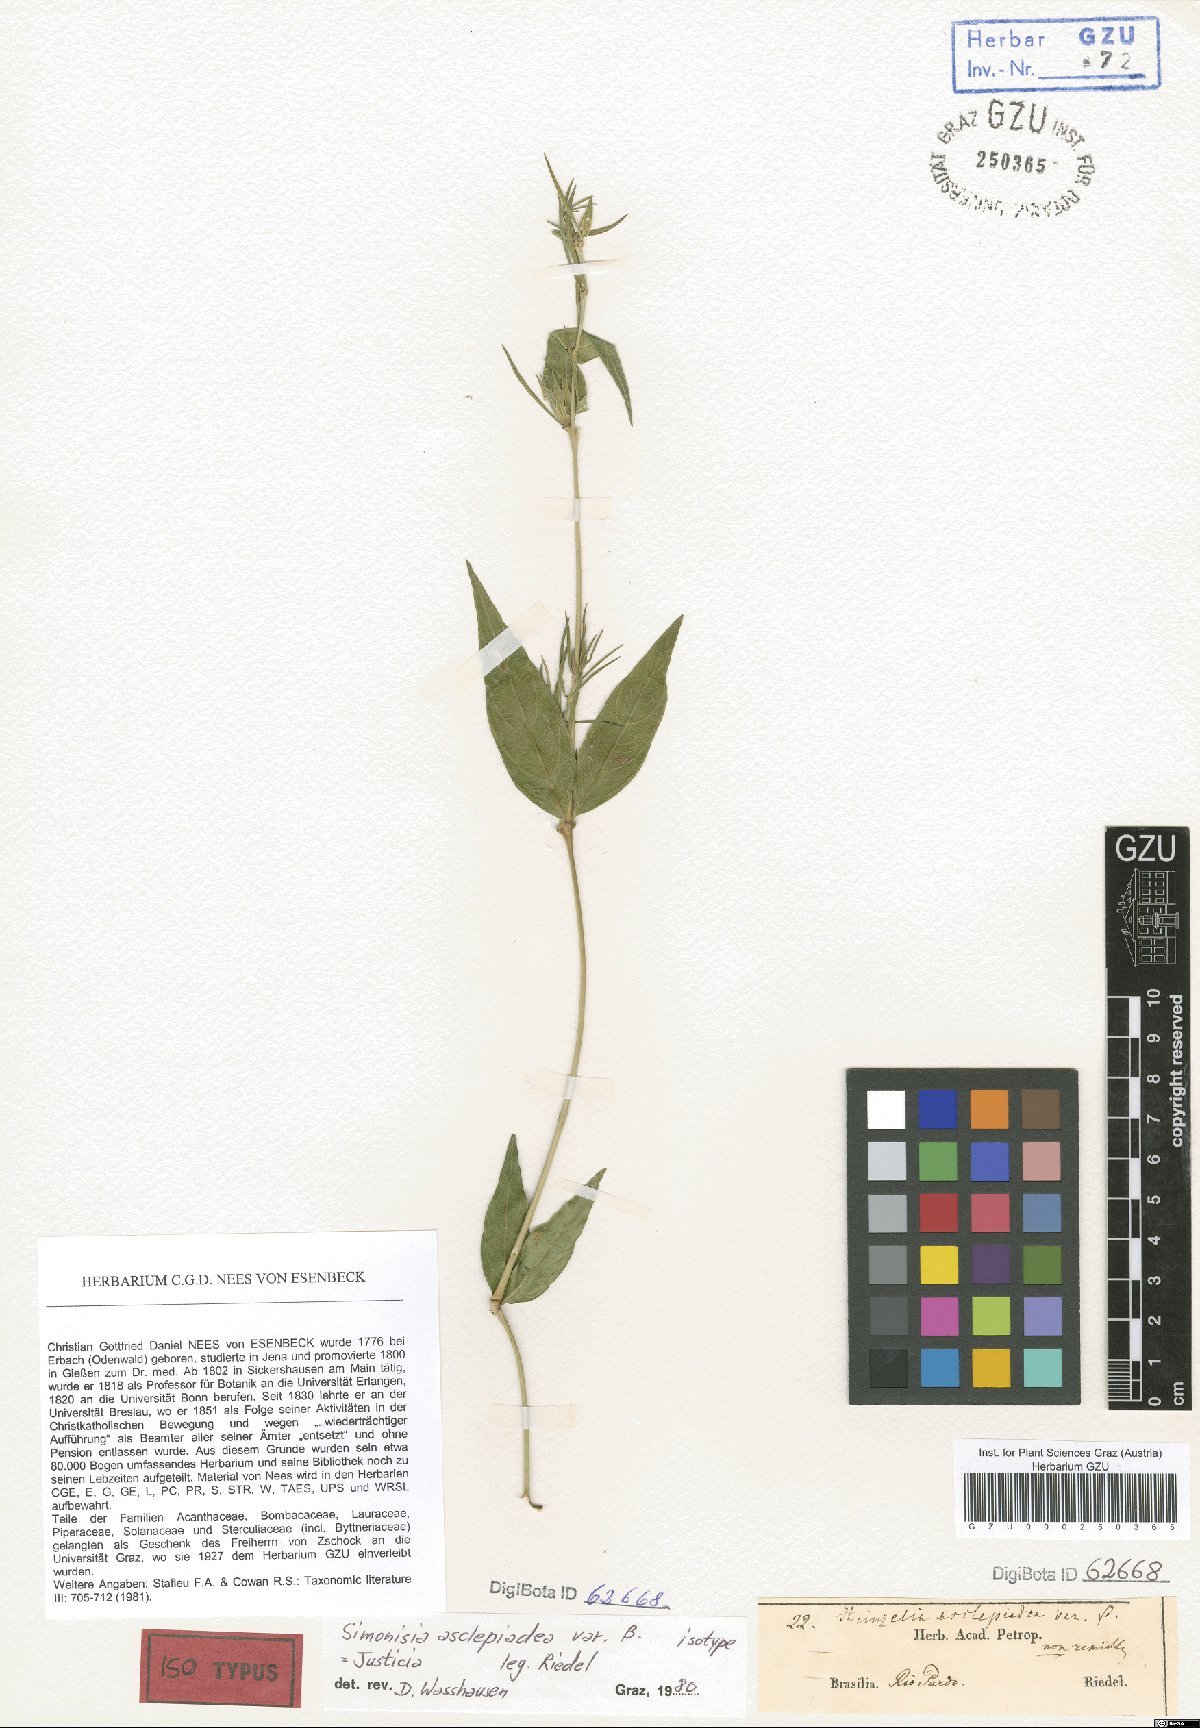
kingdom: Plantae
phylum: Tracheophyta
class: Magnoliopsida
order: Lamiales
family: Acanthaceae
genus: Justicia
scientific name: Justicia asclepiadea
